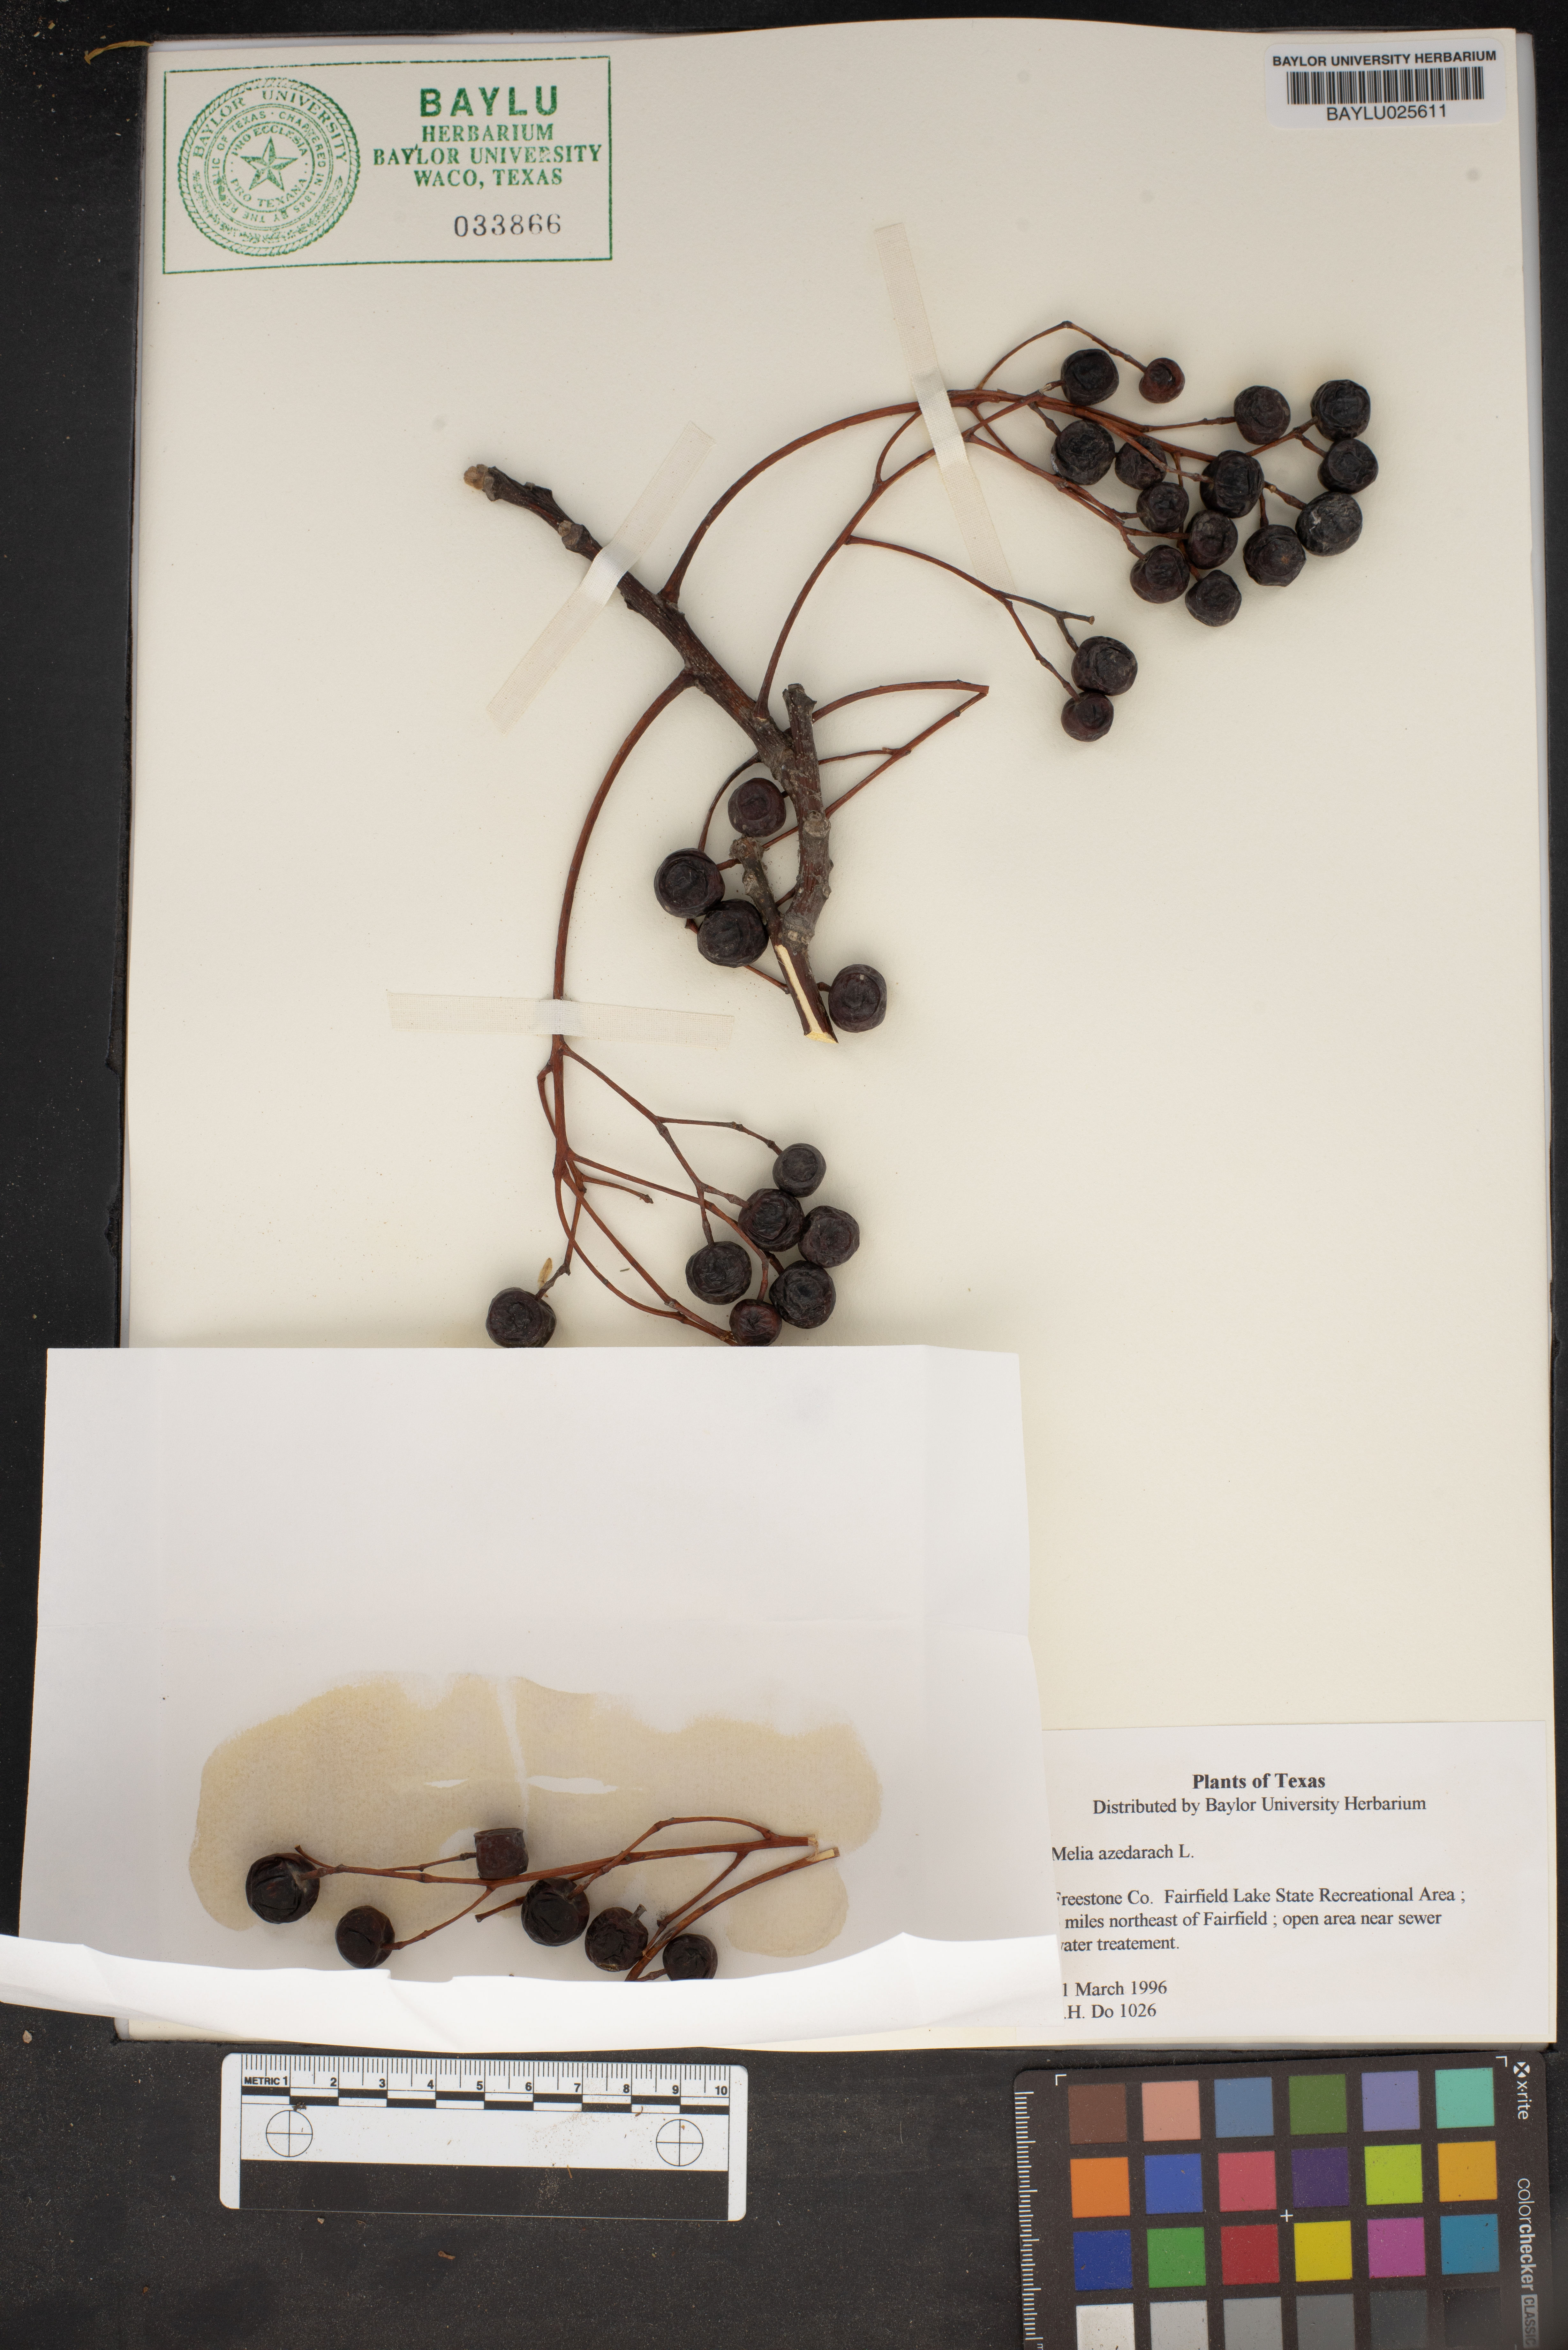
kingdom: Plantae
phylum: Tracheophyta
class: Magnoliopsida
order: Sapindales
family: Meliaceae
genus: Melia
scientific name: Melia azedarach
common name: Chinaberrytree
